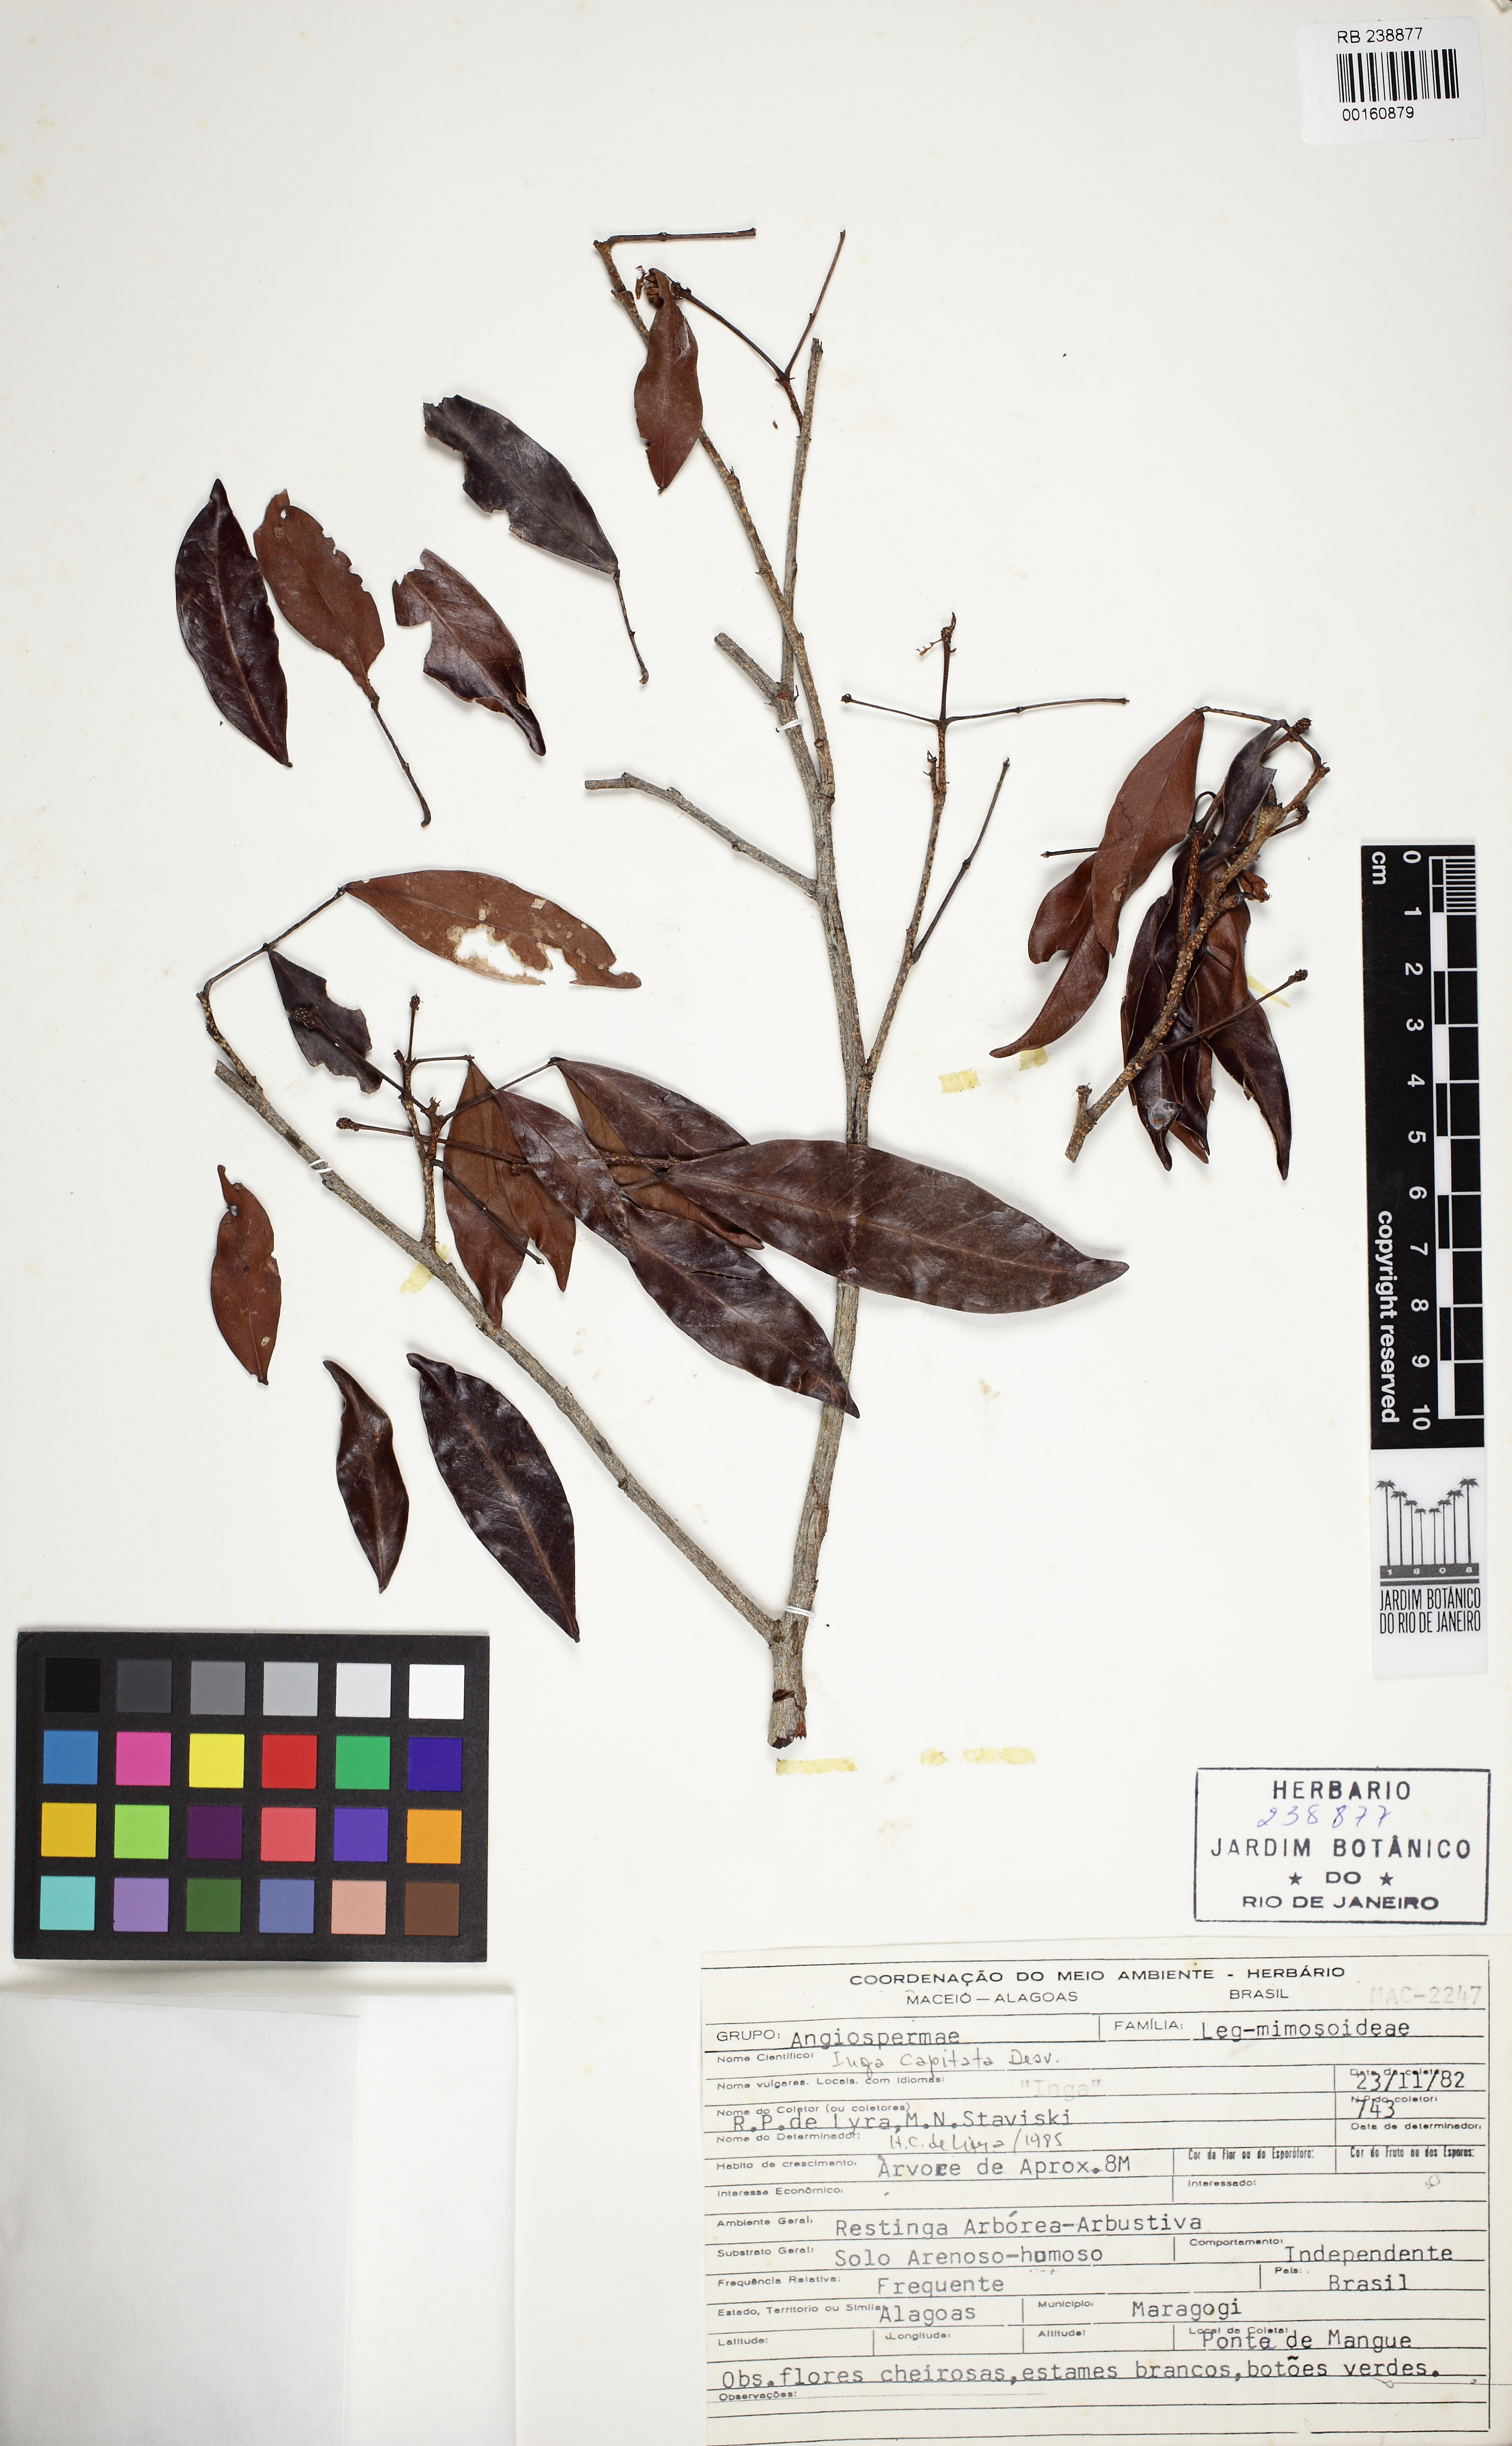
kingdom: Plantae
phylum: Tracheophyta
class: Magnoliopsida
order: Fabales
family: Fabaceae
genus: Inga
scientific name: Inga capitata
